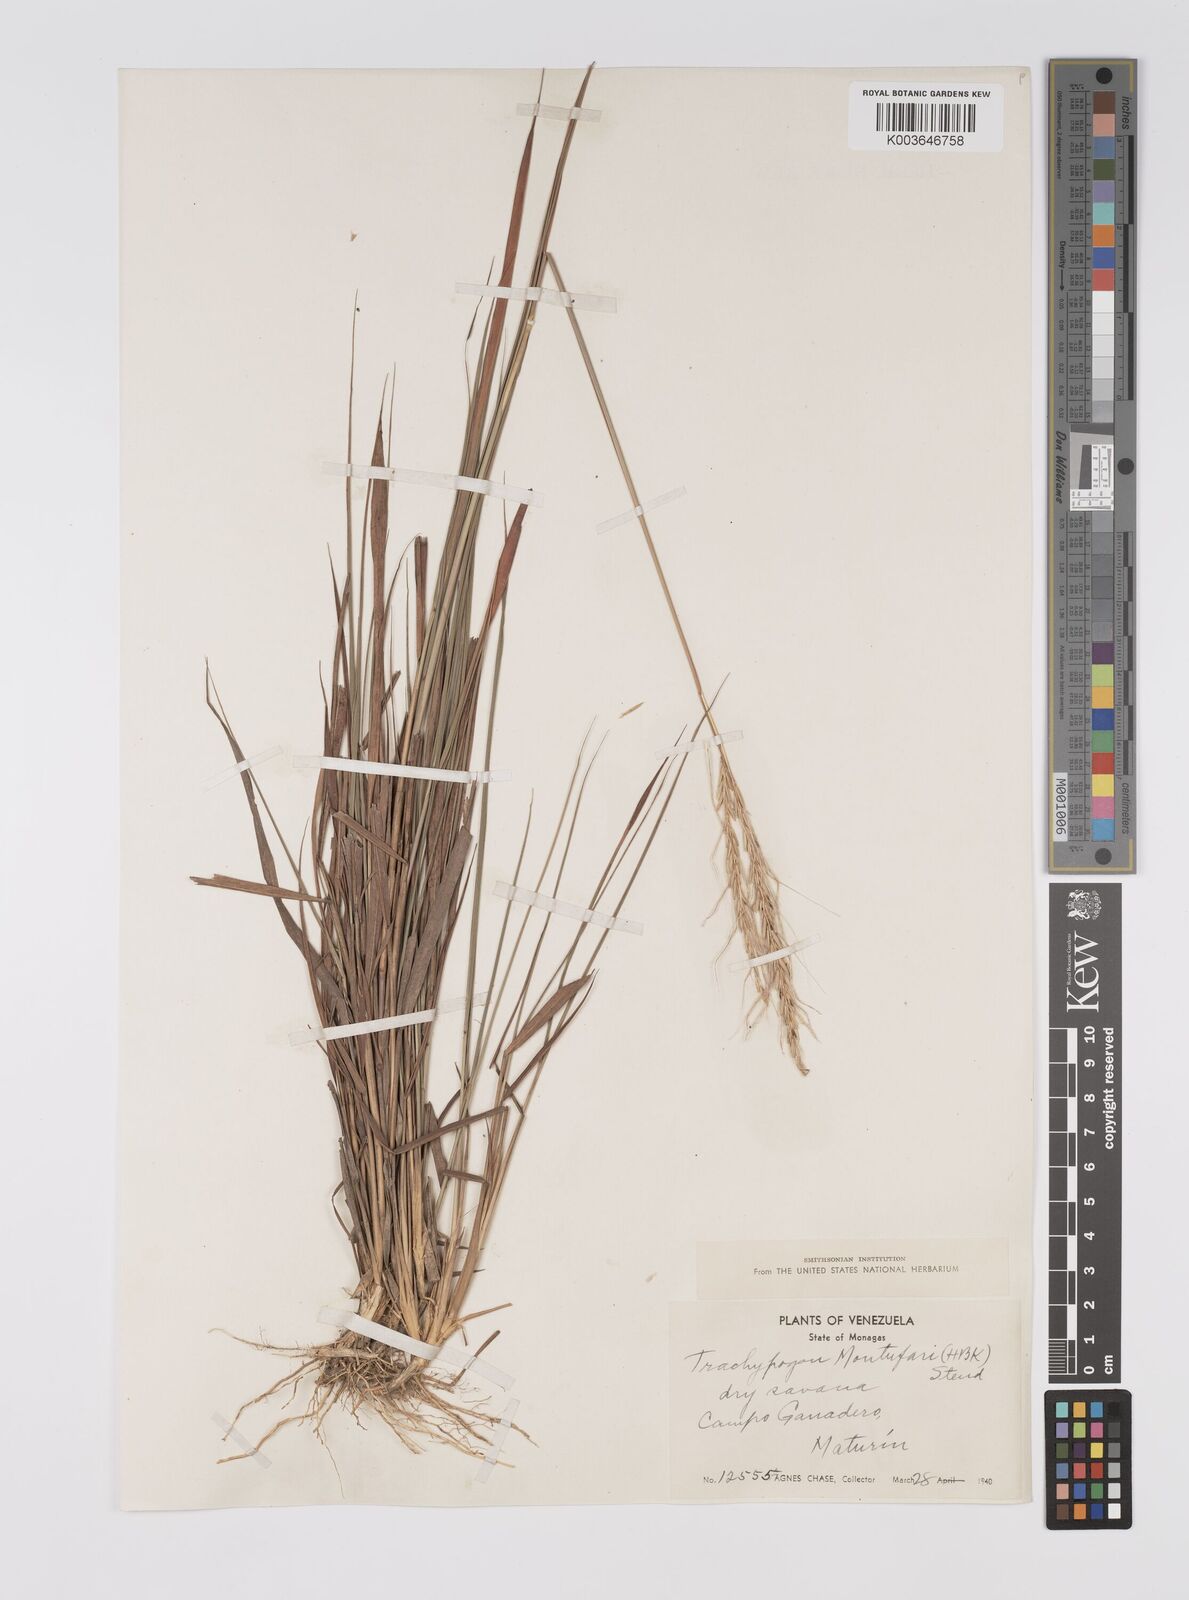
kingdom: Plantae
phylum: Tracheophyta
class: Liliopsida
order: Poales
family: Poaceae
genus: Trachypogon
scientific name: Trachypogon spicatus
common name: Crinkle-awn
